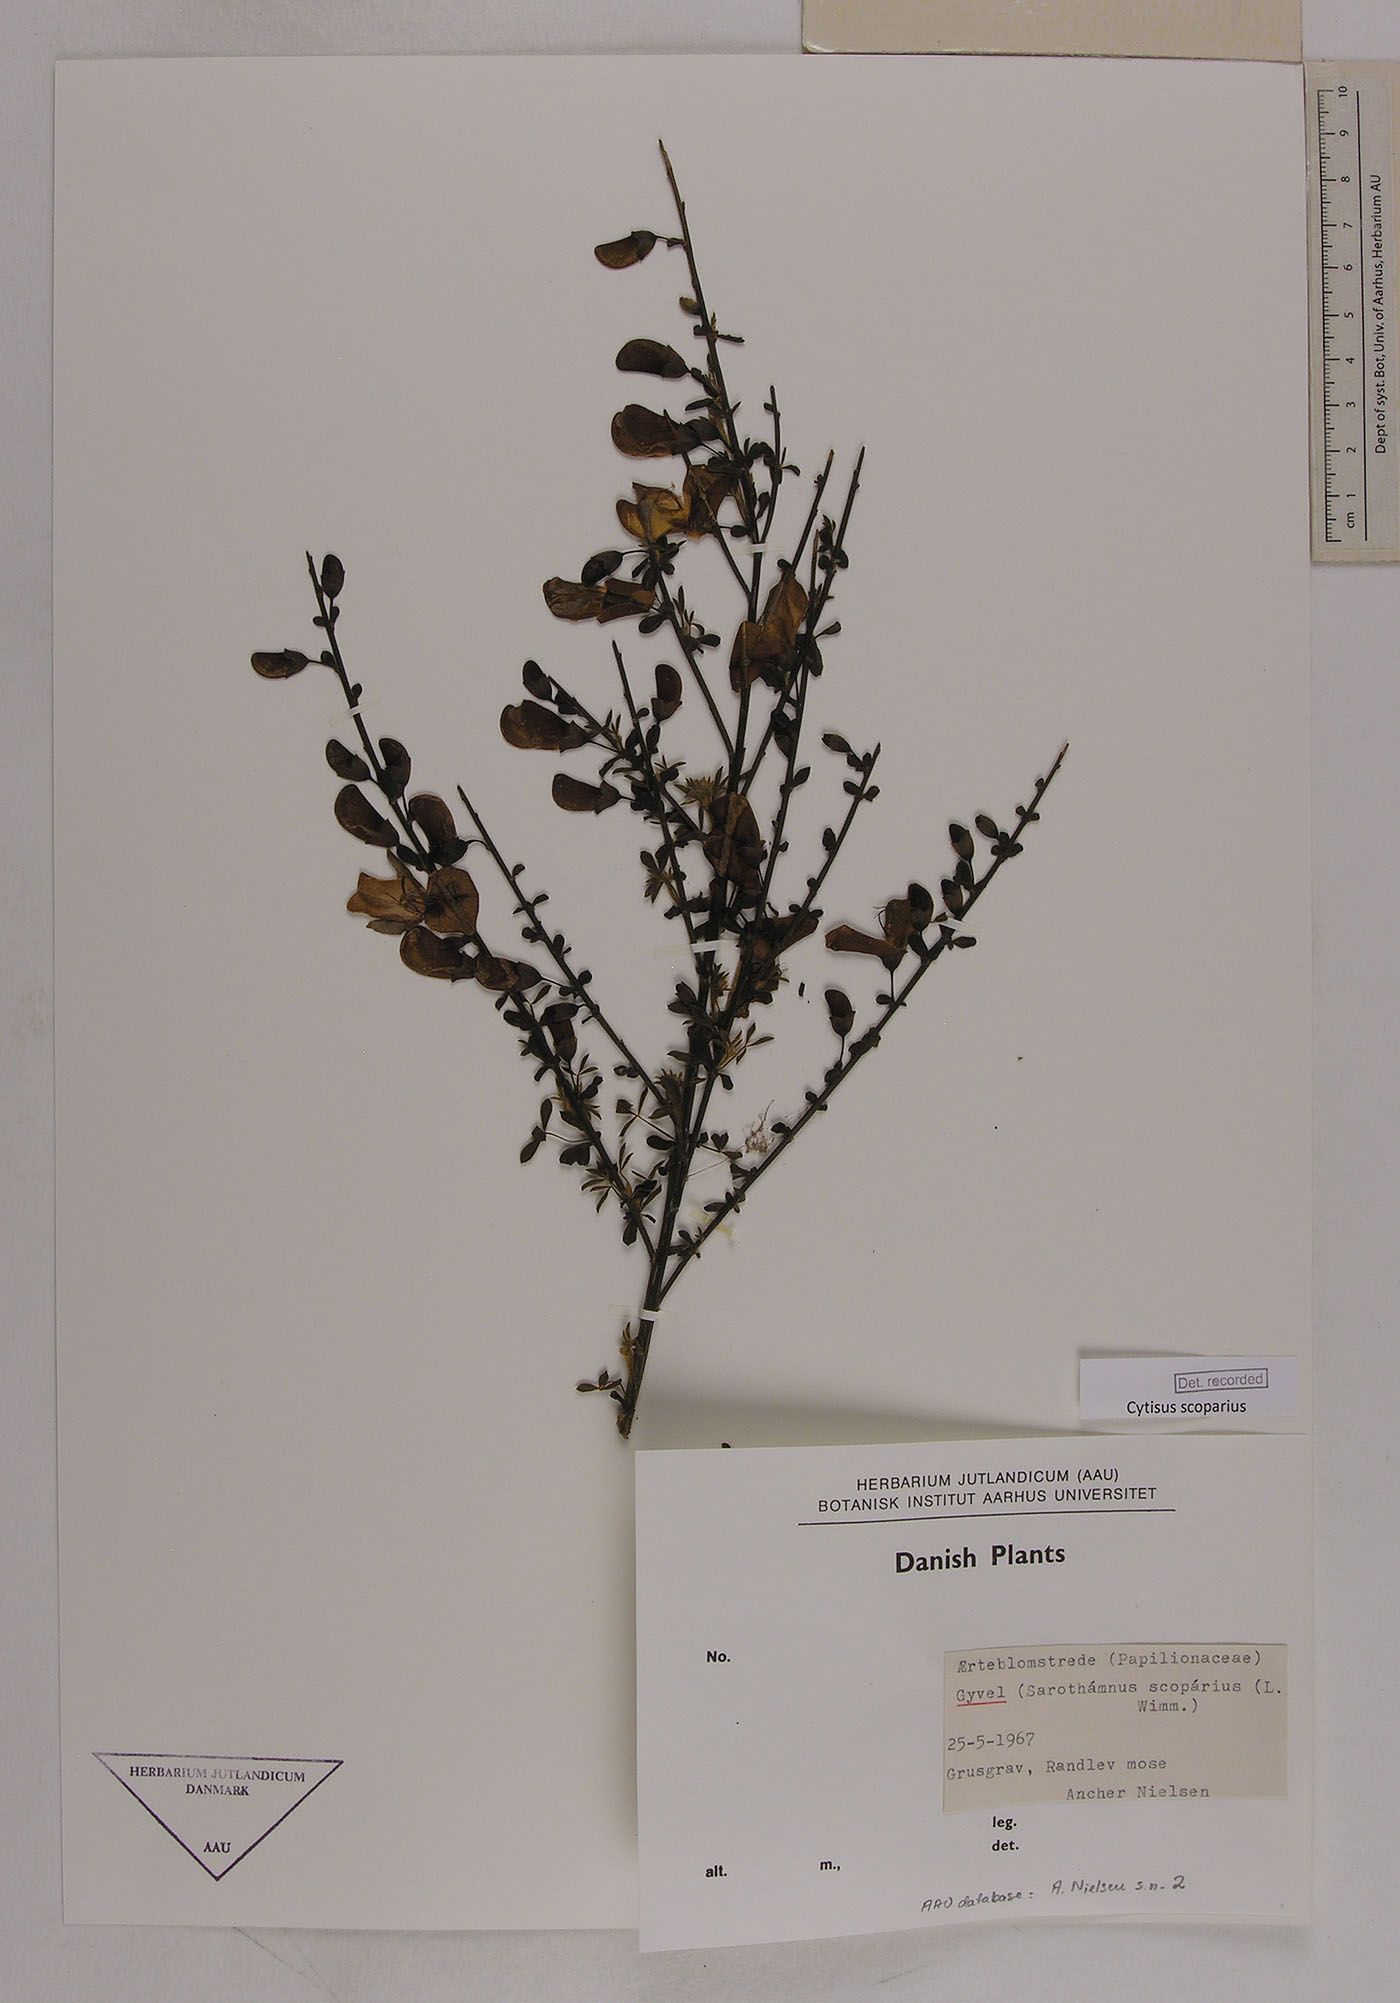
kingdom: Plantae
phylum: Tracheophyta
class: Magnoliopsida
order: Fabales
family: Fabaceae
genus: Cytisus
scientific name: Cytisus scoparius
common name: Scotch broom
